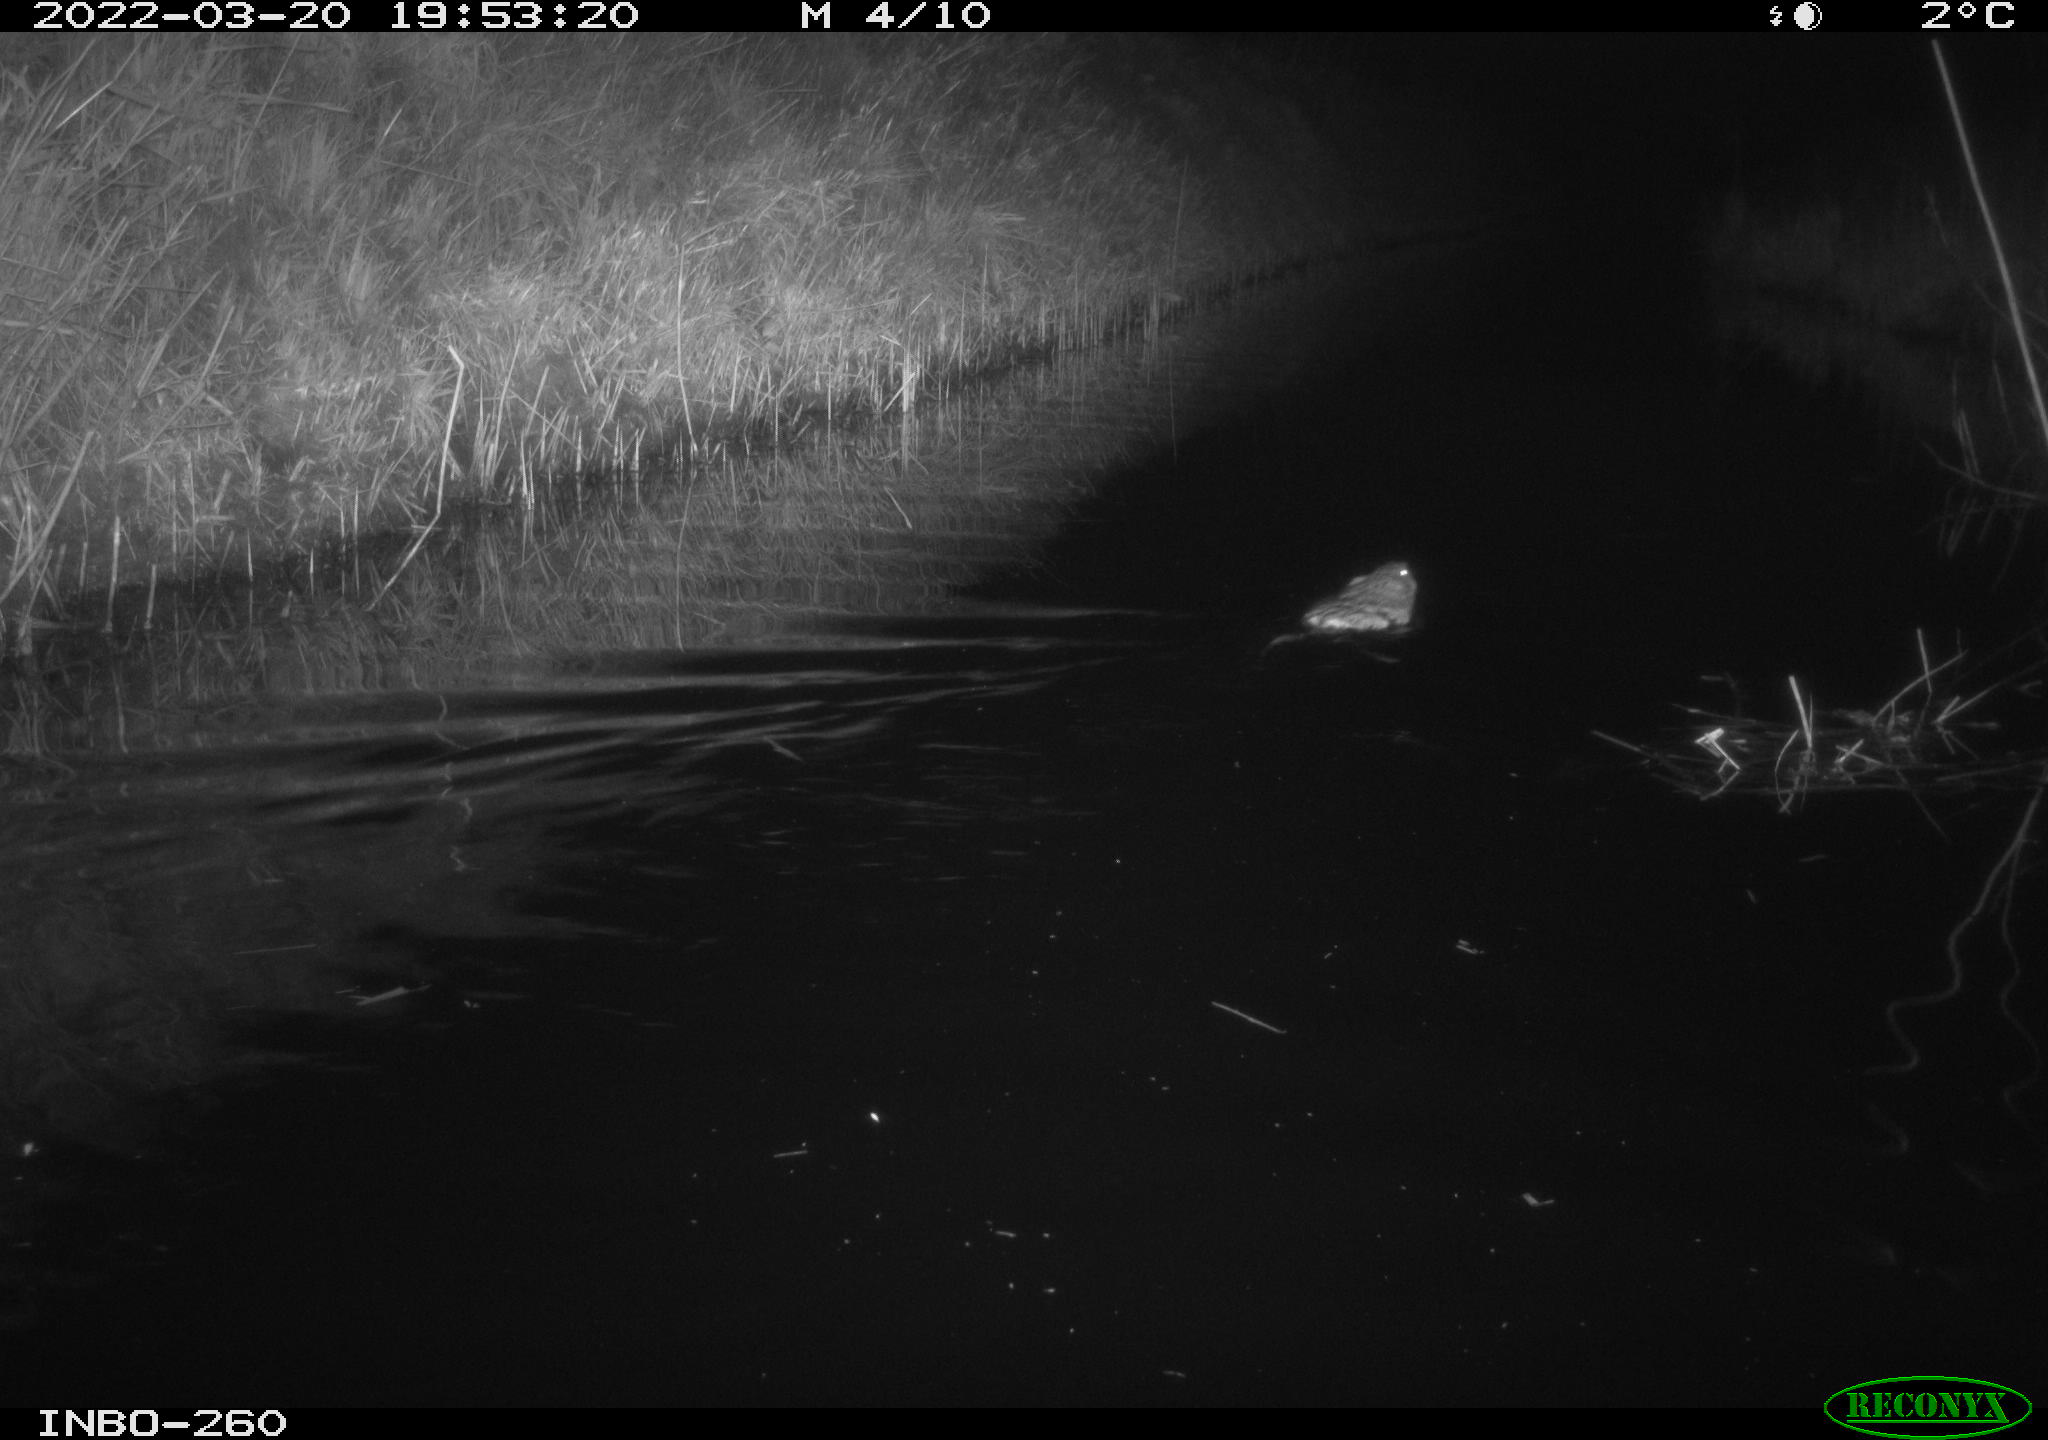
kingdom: Animalia
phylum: Chordata
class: Mammalia
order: Rodentia
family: Cricetidae
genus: Ondatra
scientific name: Ondatra zibethicus
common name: Muskrat
